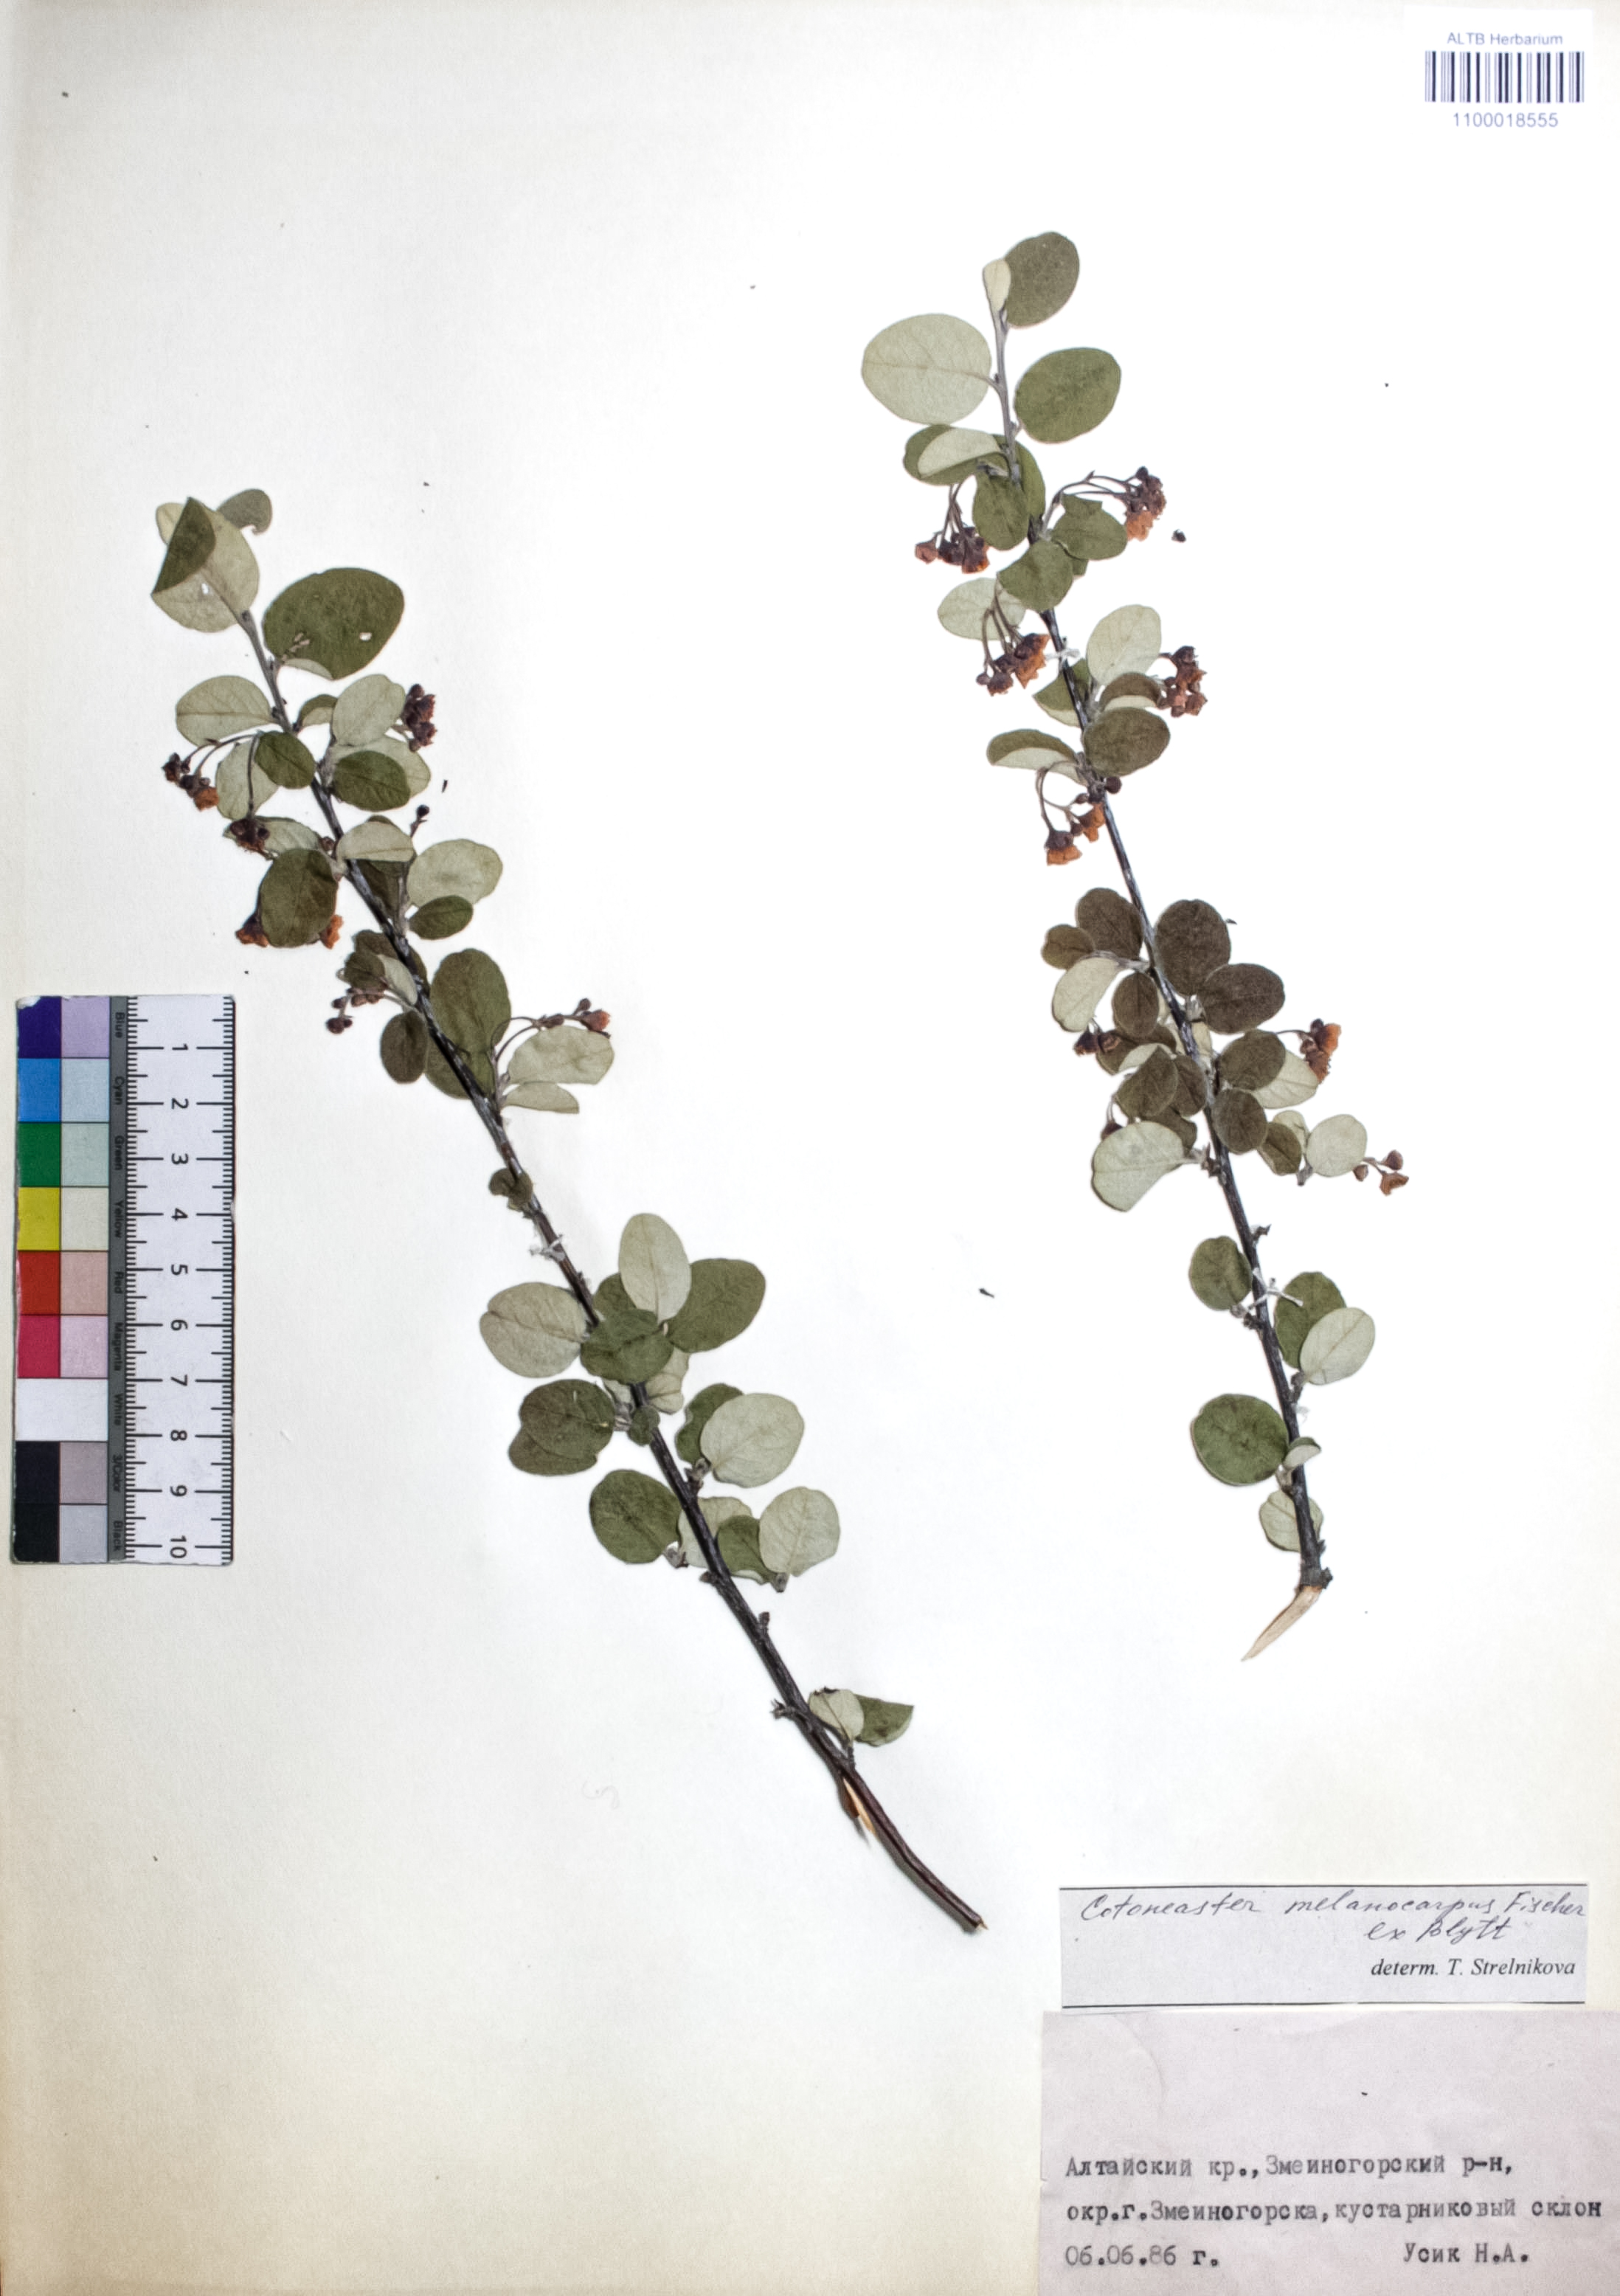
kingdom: Plantae
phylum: Tracheophyta
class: Magnoliopsida
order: Rosales
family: Rosaceae
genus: Cotoneaster
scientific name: Cotoneaster niger
